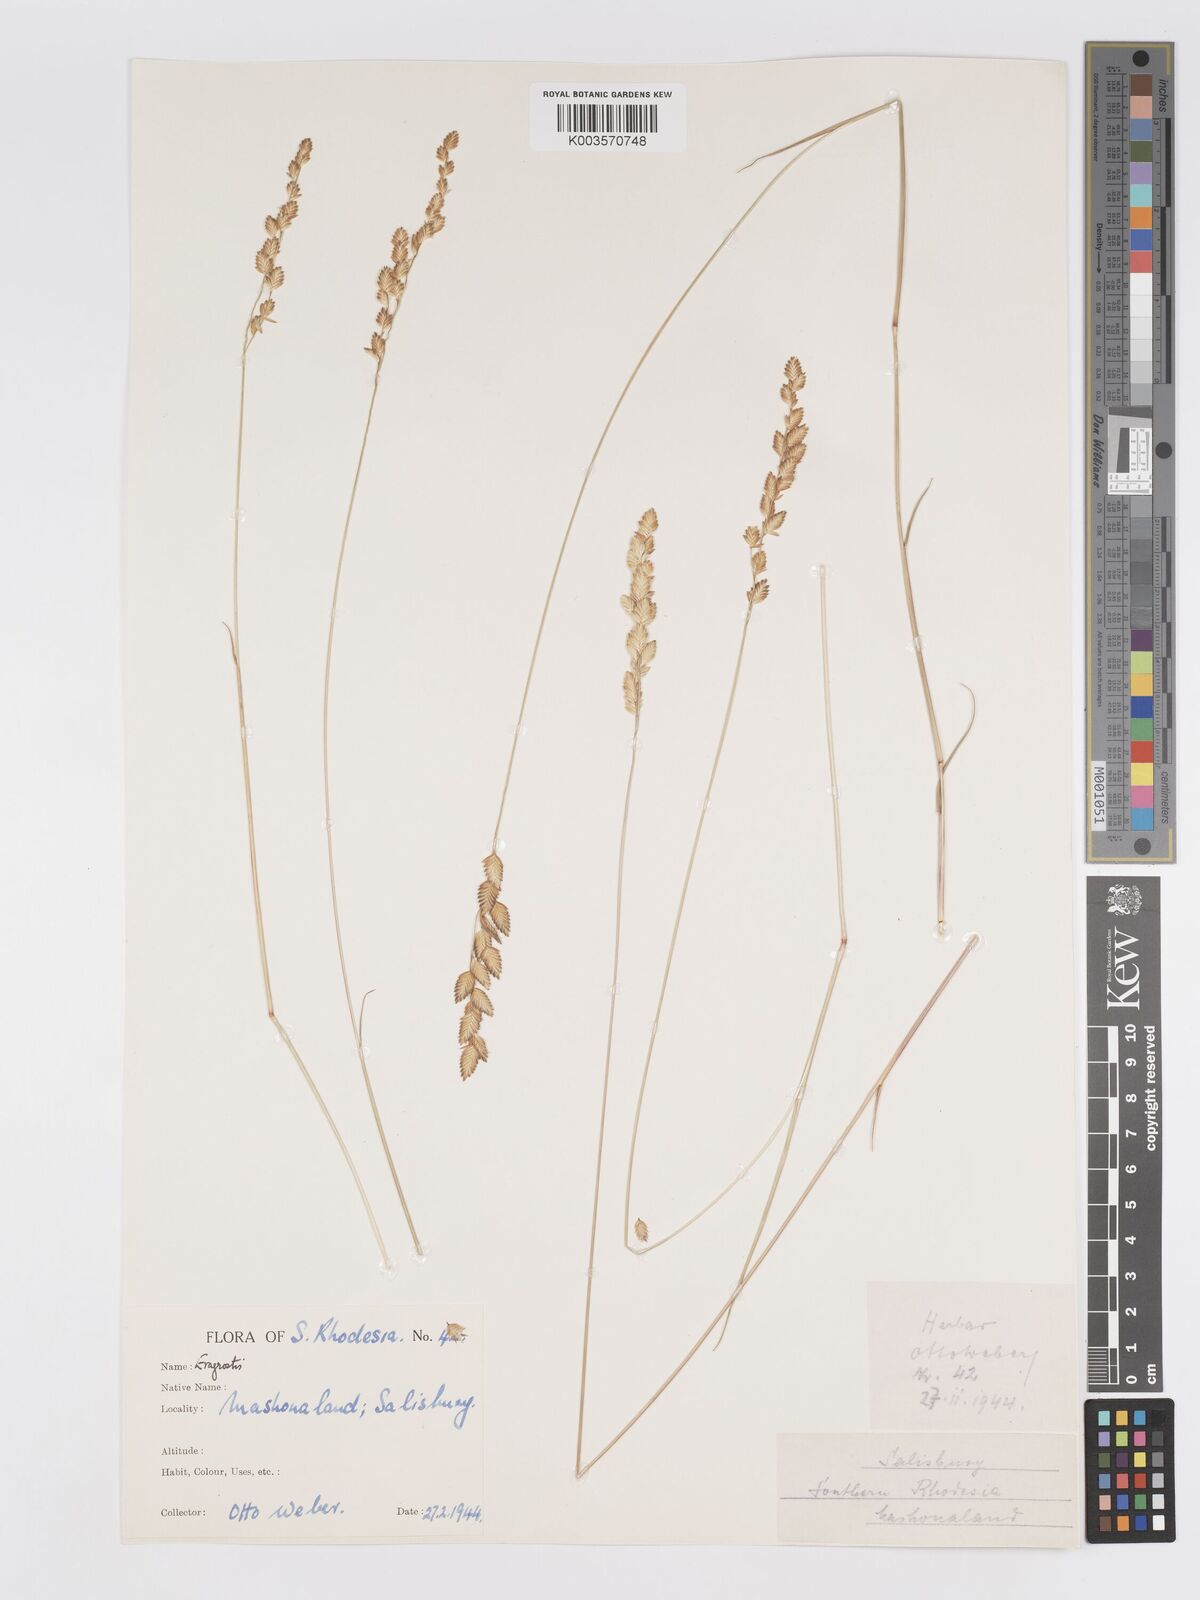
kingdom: Plantae
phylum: Tracheophyta
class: Liliopsida
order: Poales
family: Poaceae
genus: Eragrostis
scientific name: Eragrostis capensis
